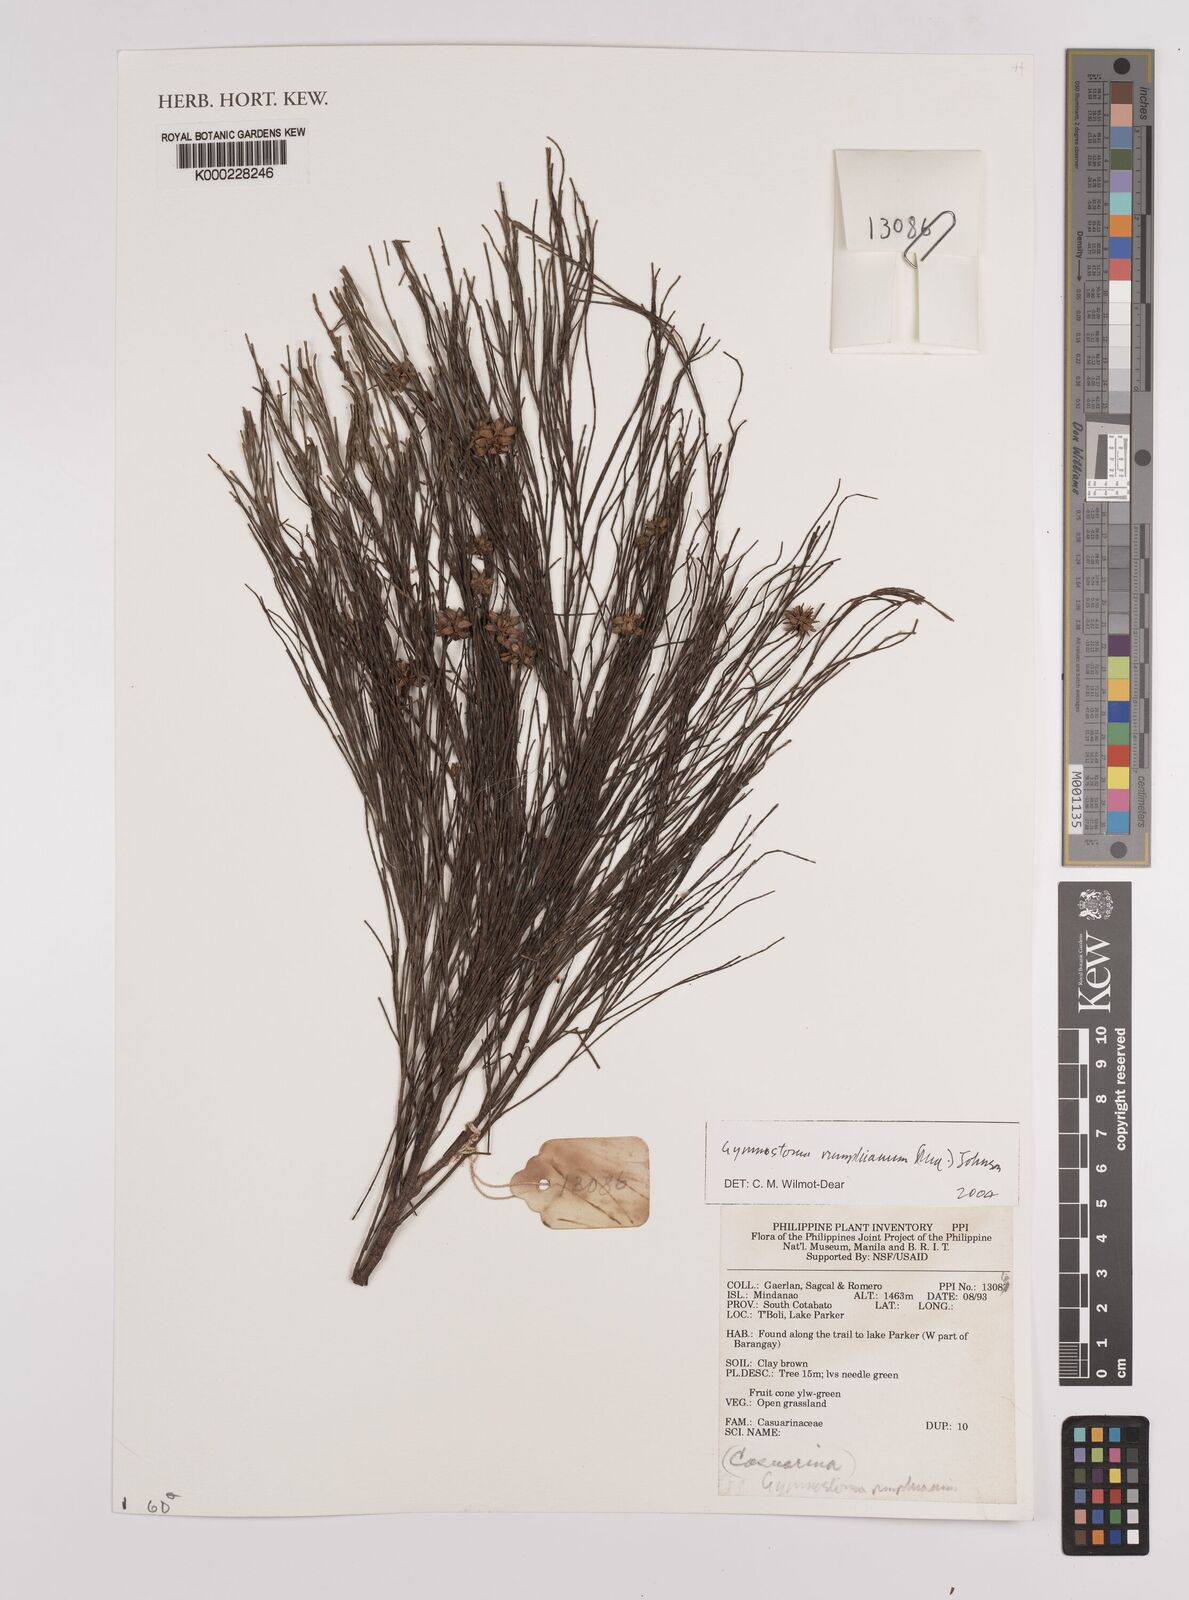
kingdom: Plantae
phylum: Tracheophyta
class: Magnoliopsida
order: Fagales
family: Casuarinaceae
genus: Gymnostoma
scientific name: Gymnostoma rumphianum
